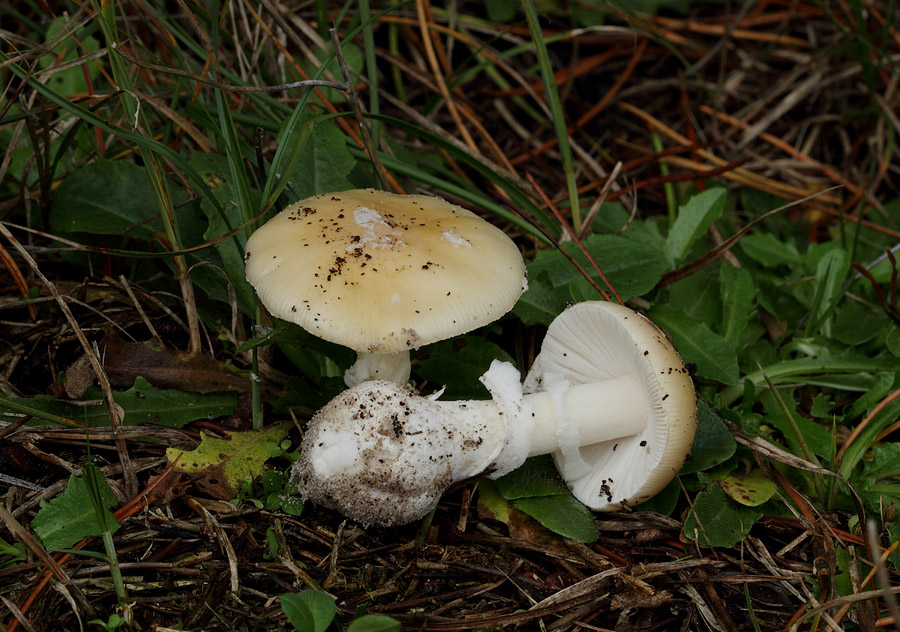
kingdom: Fungi
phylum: Basidiomycota
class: Agaricomycetes
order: Agaricales
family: Amanitaceae
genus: Amanita
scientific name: Amanita gemmata
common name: okkergul fluesvamp
